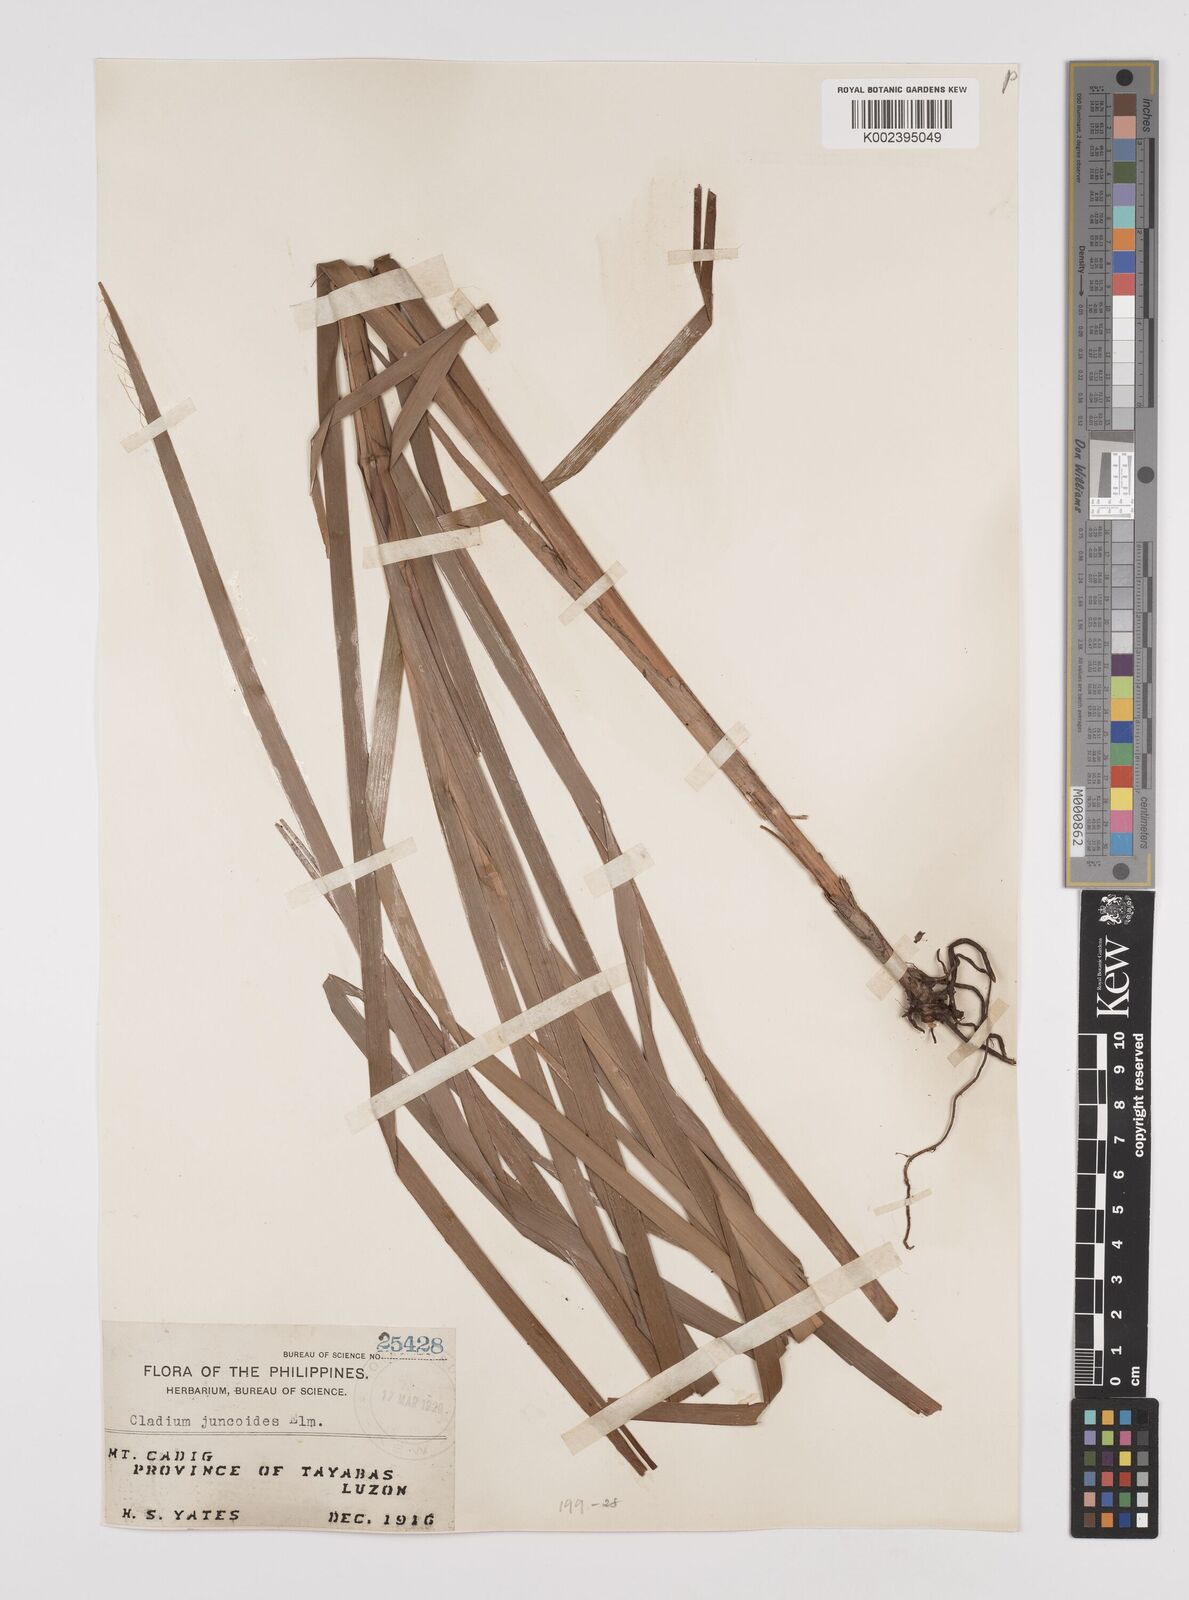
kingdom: Plantae
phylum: Tracheophyta
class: Liliopsida
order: Poales
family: Cyperaceae
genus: Machaerina
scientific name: Machaerina glomerata
